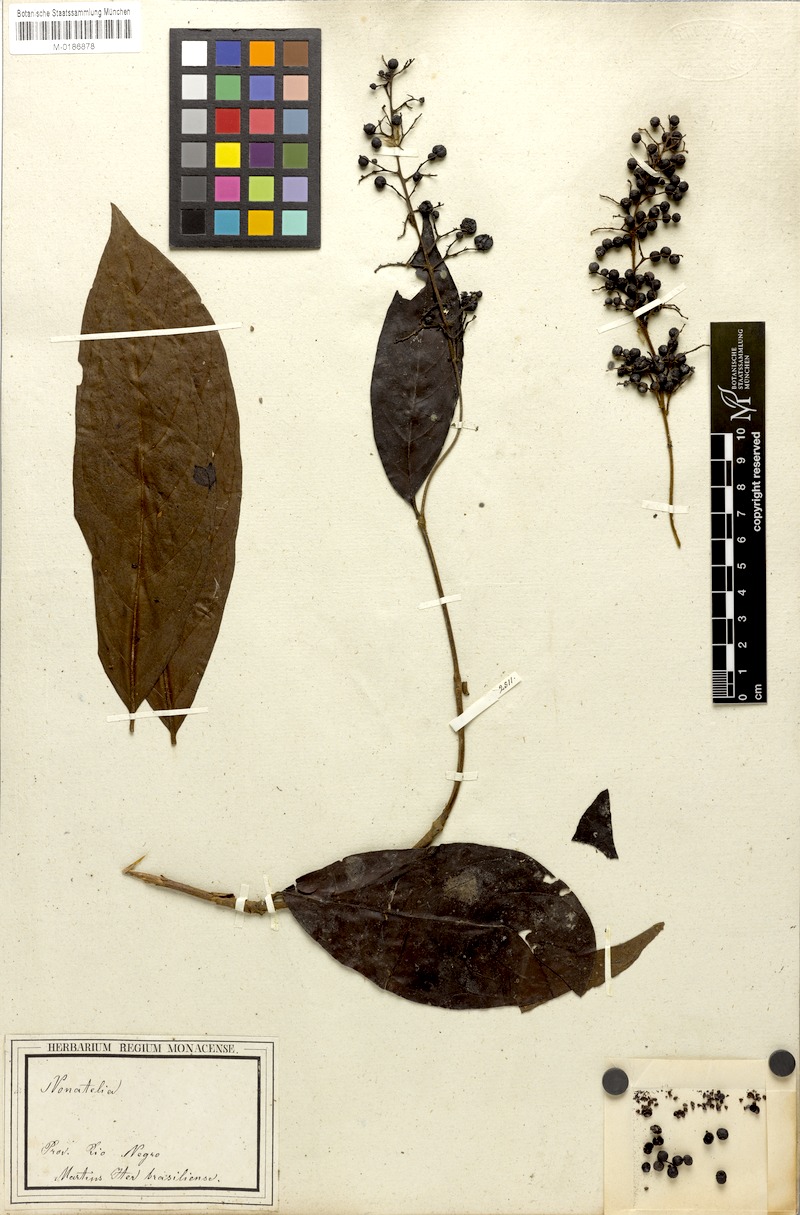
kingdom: Plantae
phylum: Tracheophyta
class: Magnoliopsida
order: Gentianales
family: Rubiaceae
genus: Bertiera
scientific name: Bertiera guianensis
